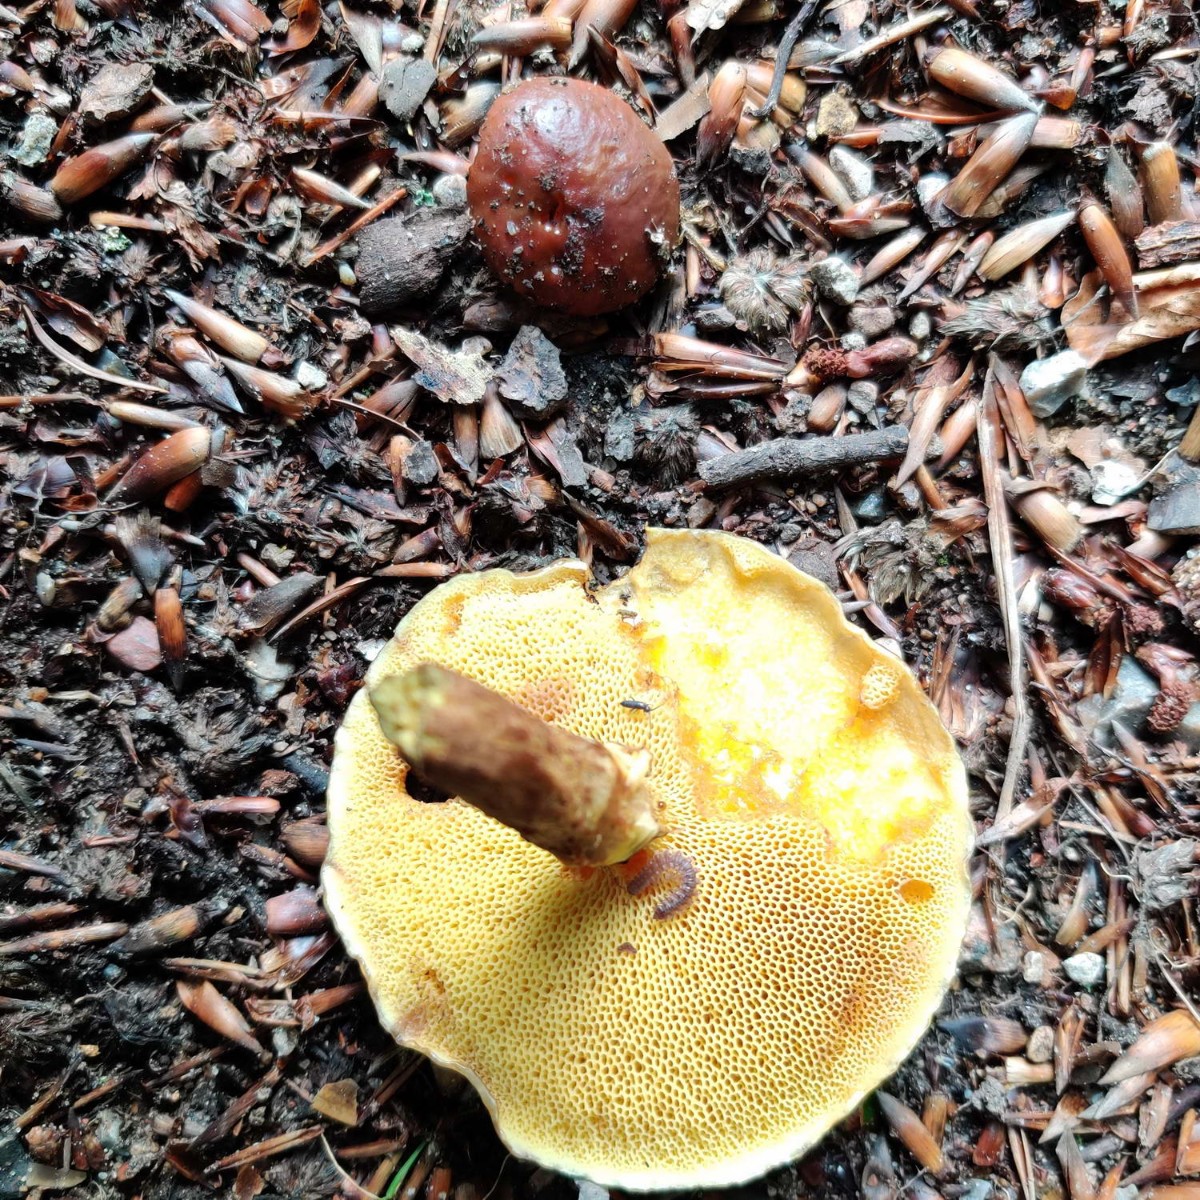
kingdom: Fungi
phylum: Basidiomycota
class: Agaricomycetes
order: Boletales
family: Suillaceae
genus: Suillus
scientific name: Suillus grevillei
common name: Larch bolete
